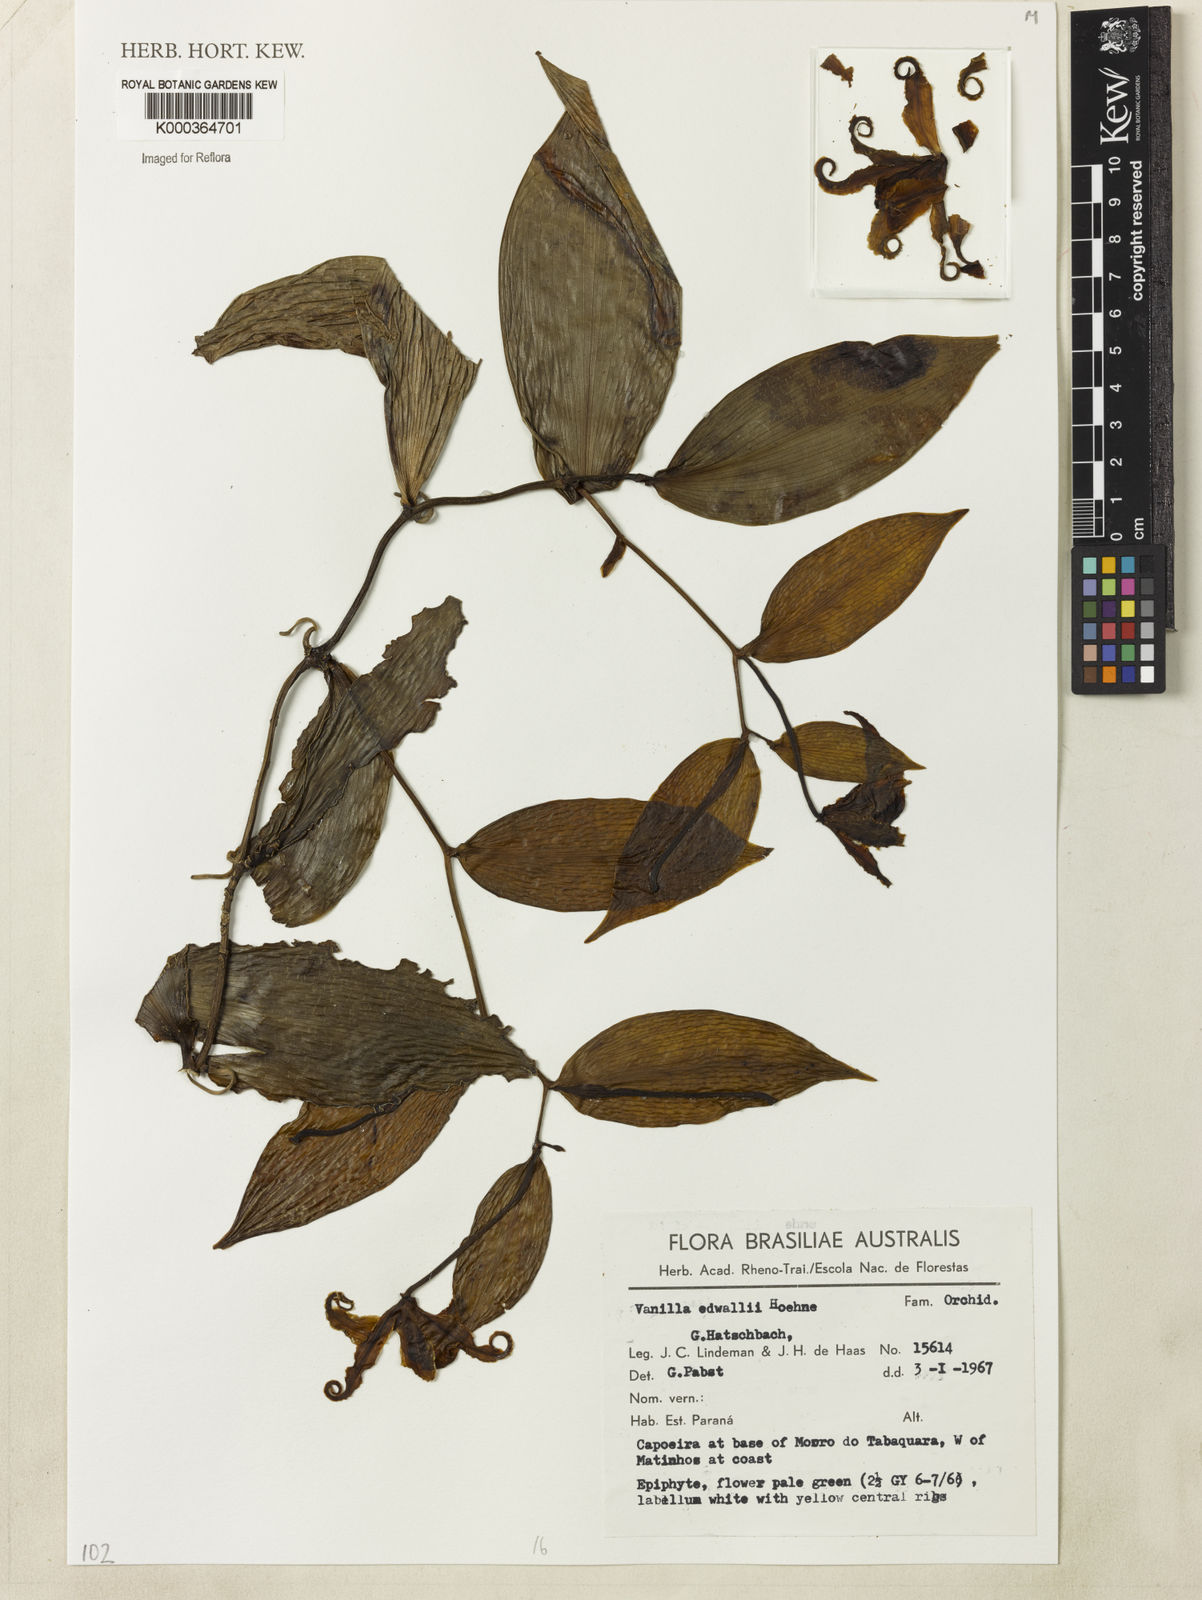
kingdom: Plantae
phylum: Tracheophyta
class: Liliopsida
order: Asparagales
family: Orchidaceae
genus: Vanilla
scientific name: Vanilla edwallii
